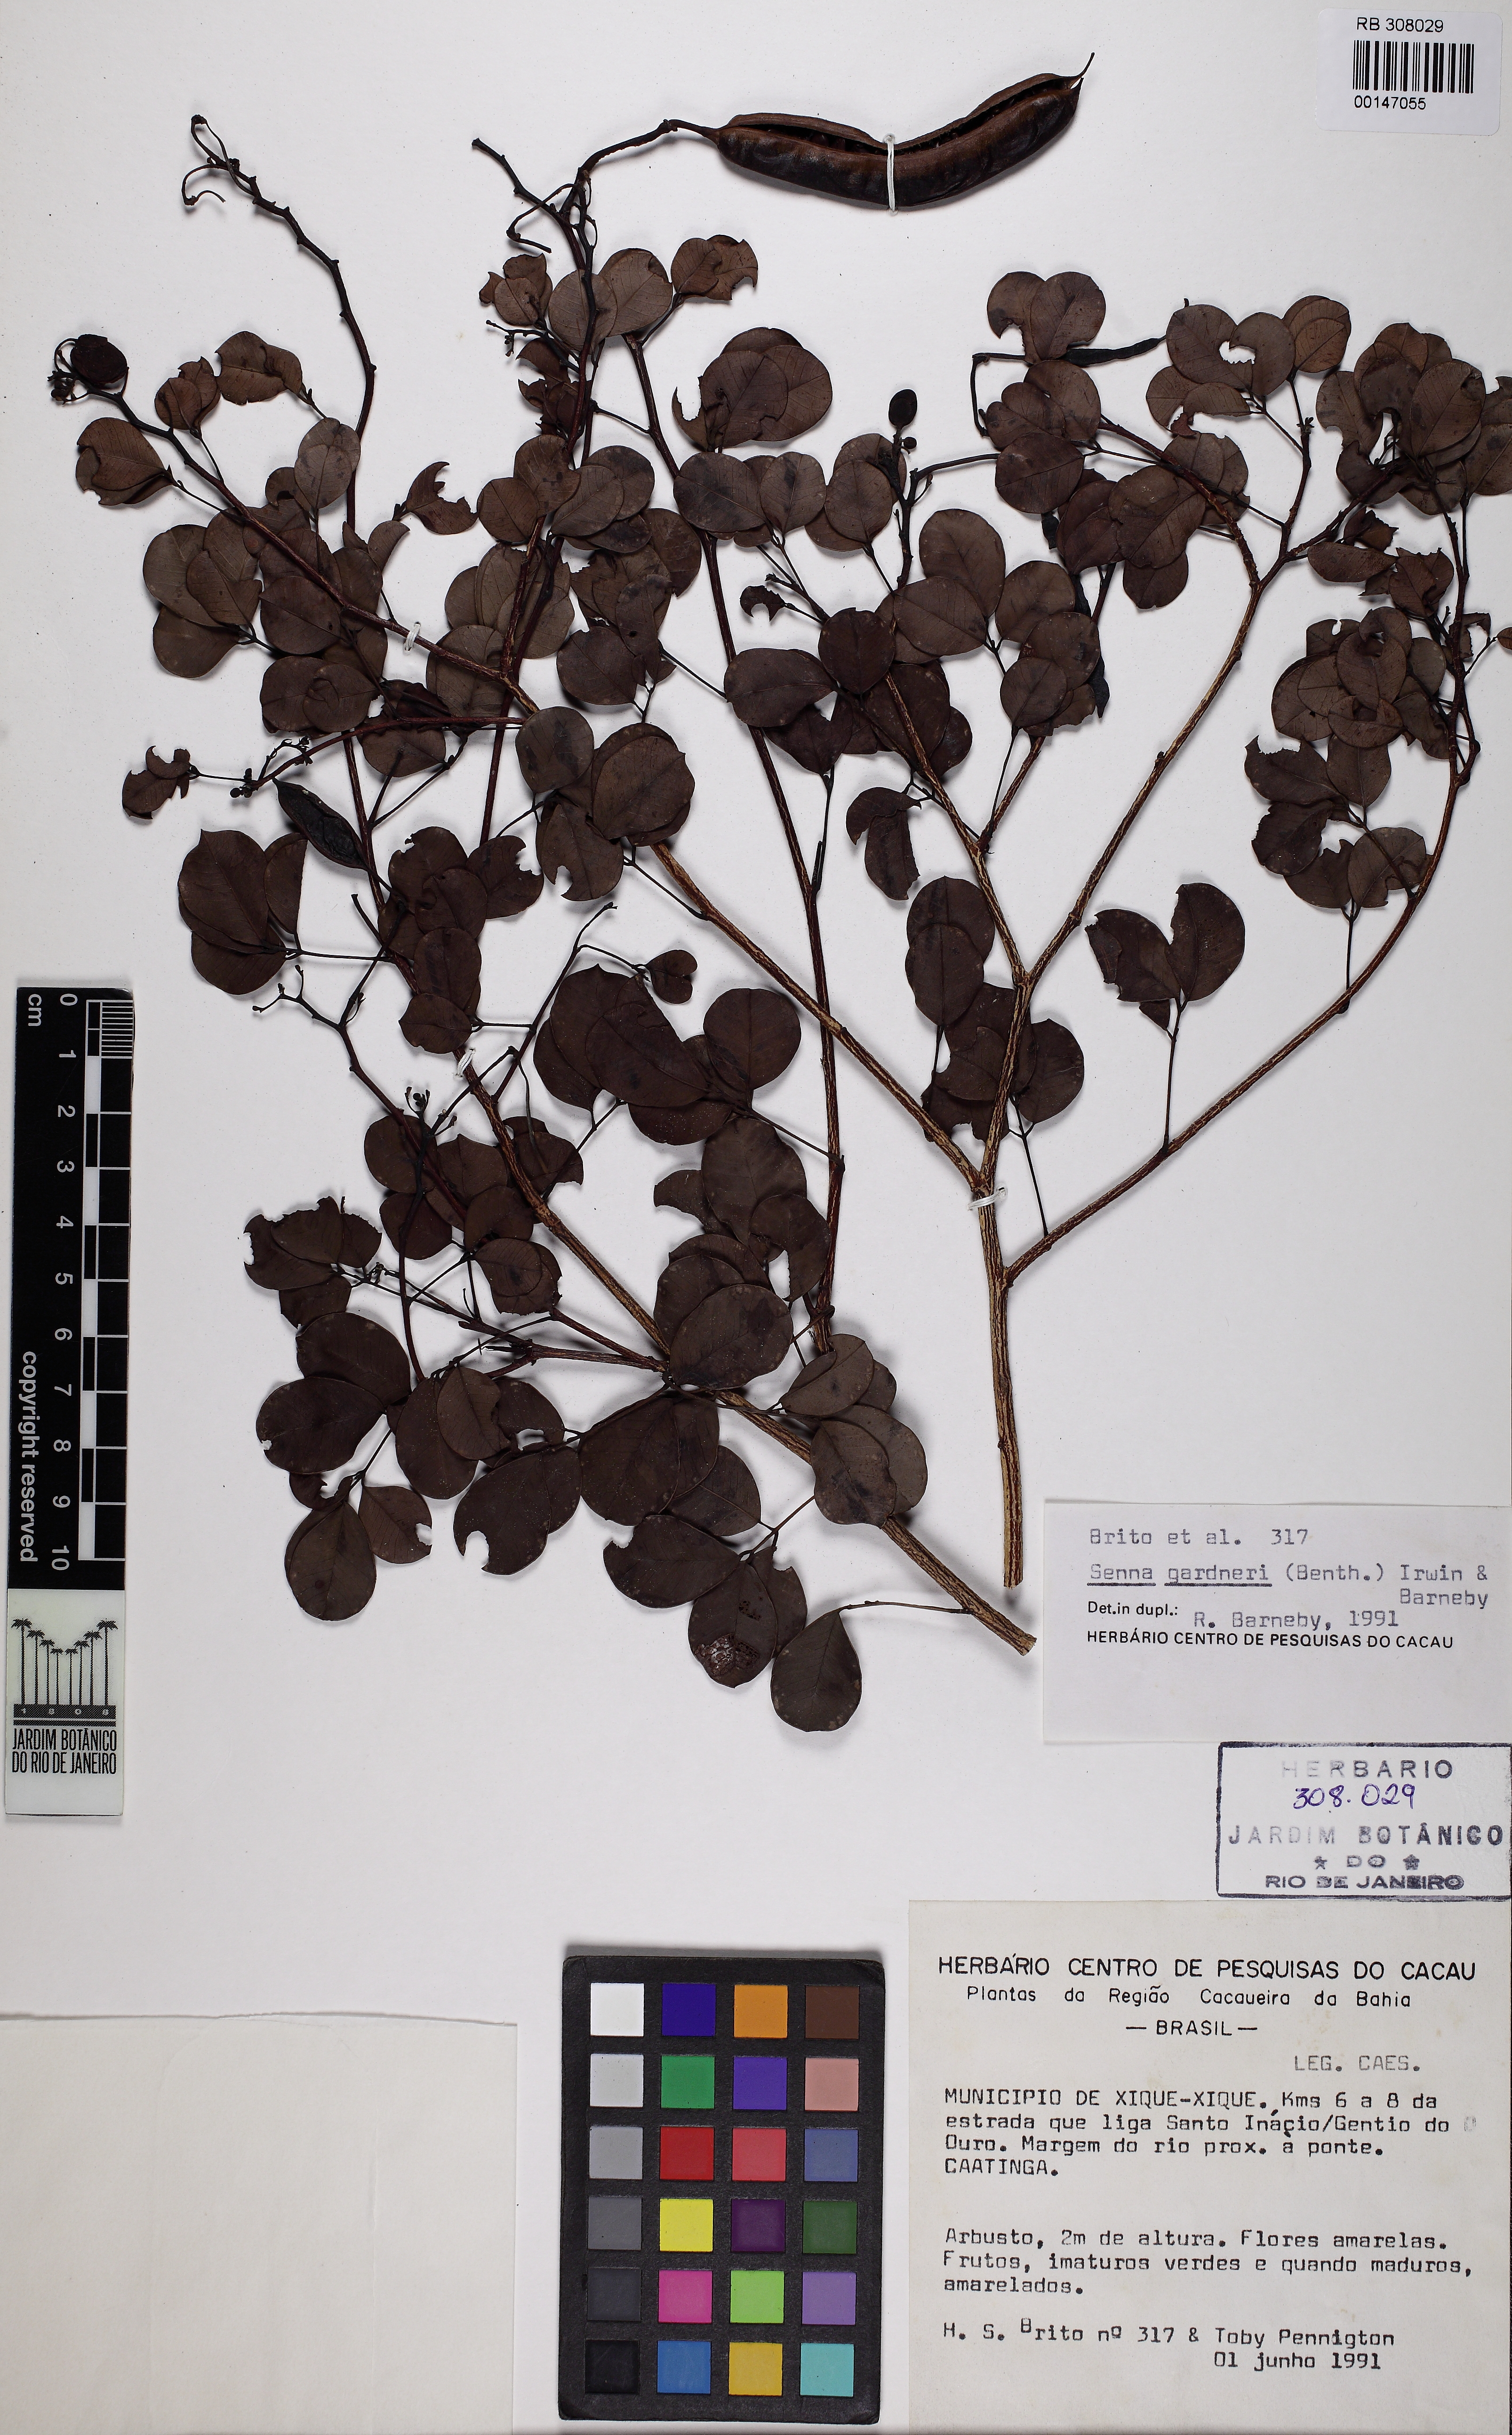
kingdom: Plantae
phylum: Tracheophyta
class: Magnoliopsida
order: Fabales
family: Fabaceae
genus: Senna
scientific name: Senna gardneri
